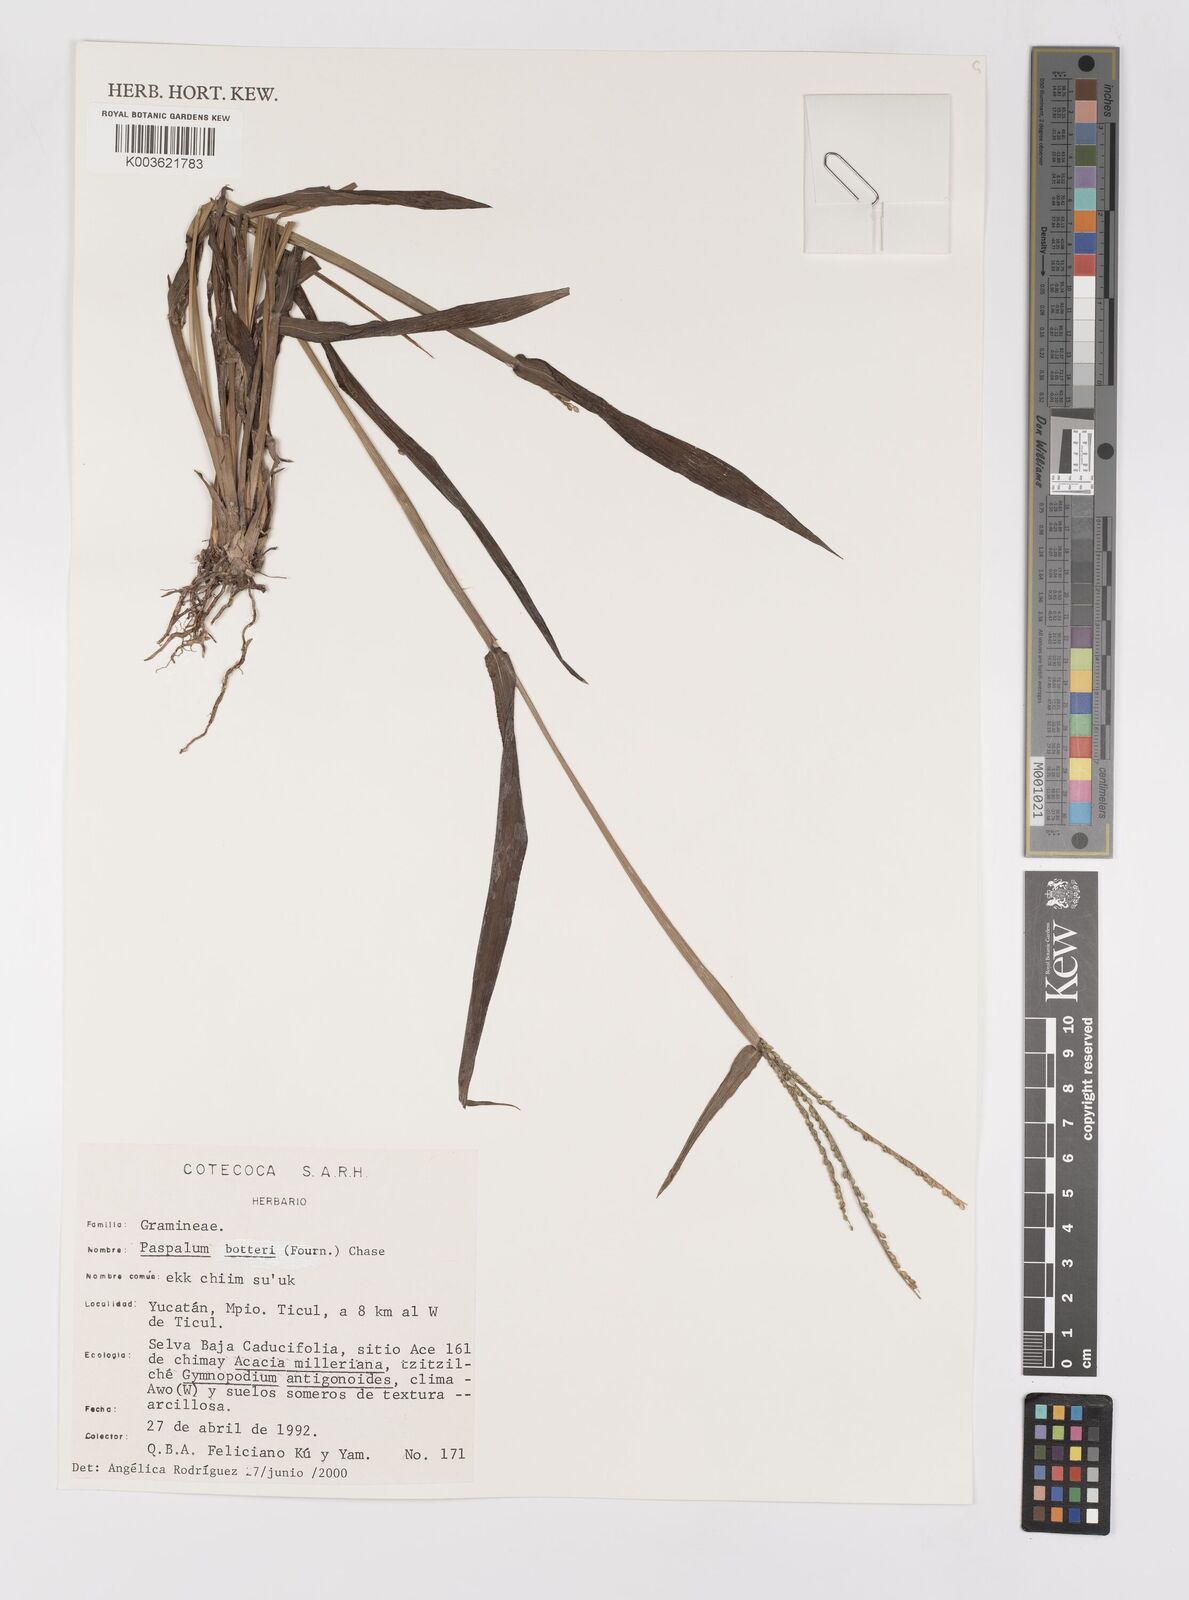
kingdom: Plantae
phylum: Tracheophyta
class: Liliopsida
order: Poales
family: Poaceae
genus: Paspalum
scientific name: Paspalum botterii
